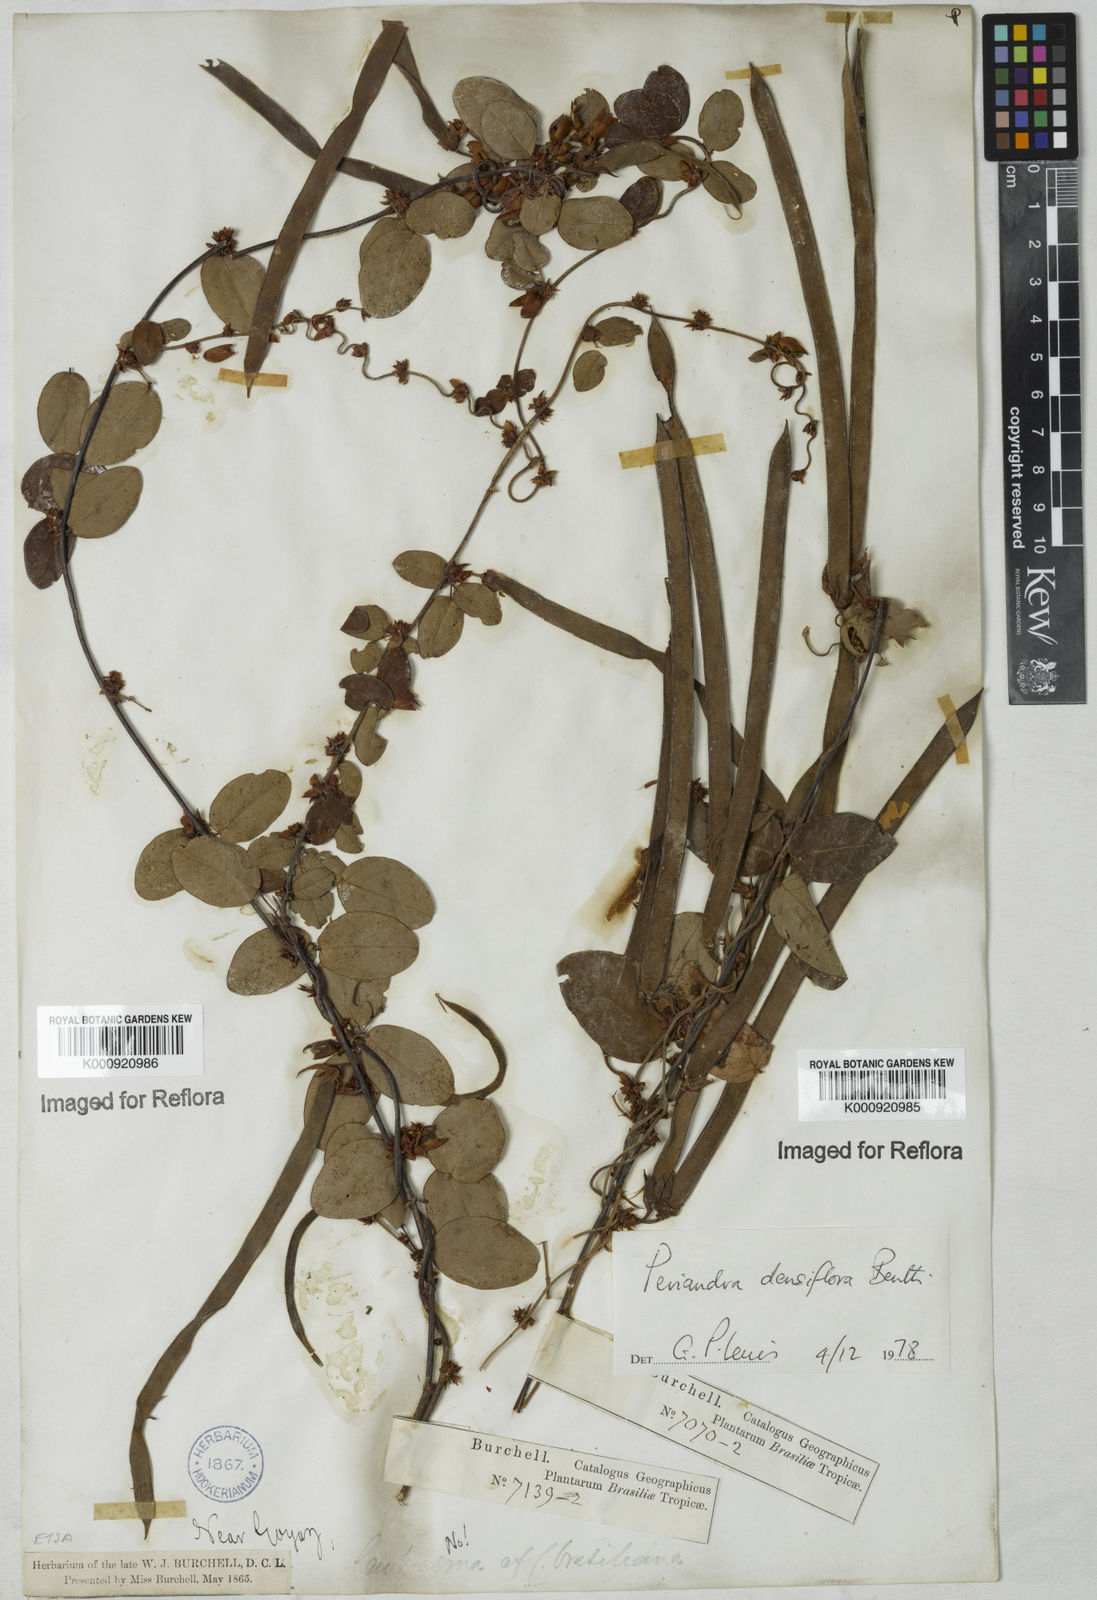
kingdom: Plantae
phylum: Tracheophyta
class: Magnoliopsida
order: Fabales
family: Fabaceae
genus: Periandra
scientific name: Periandra densiflora
